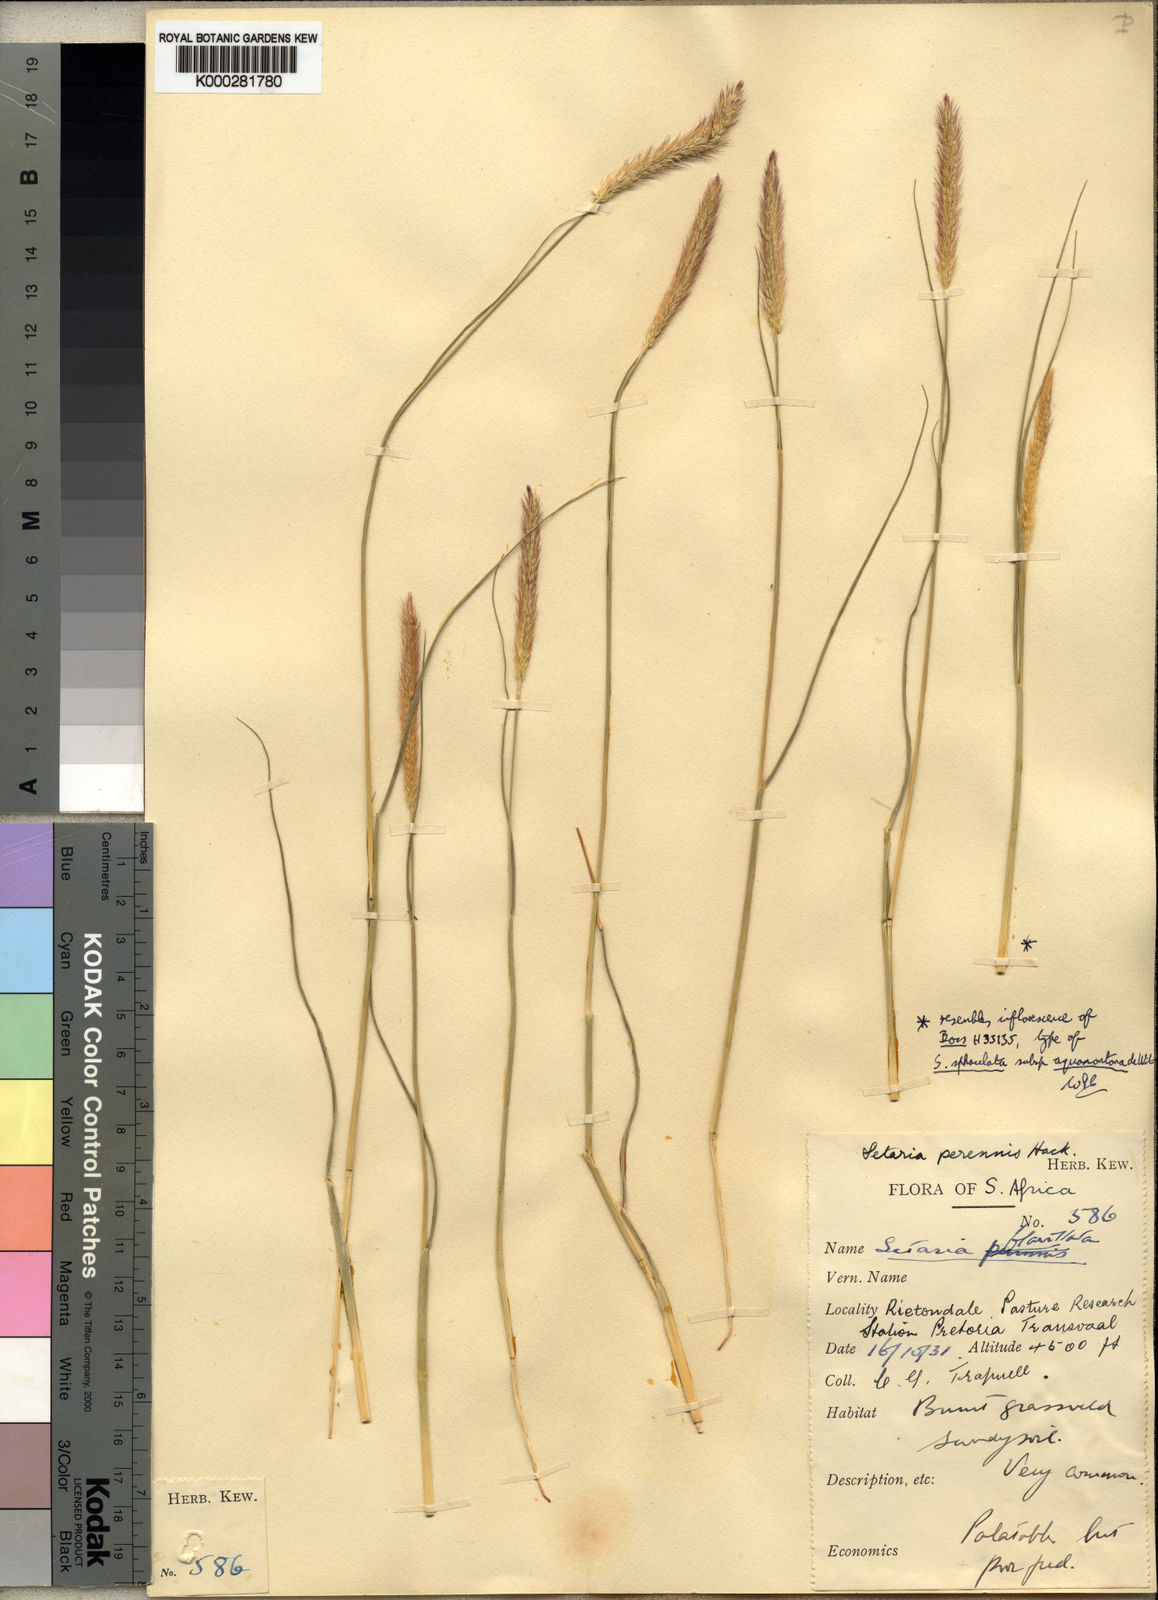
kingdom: Plantae
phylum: Tracheophyta
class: Liliopsida
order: Poales
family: Poaceae
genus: Setaria
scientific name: Setaria sphacelata
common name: African bristlegrass
